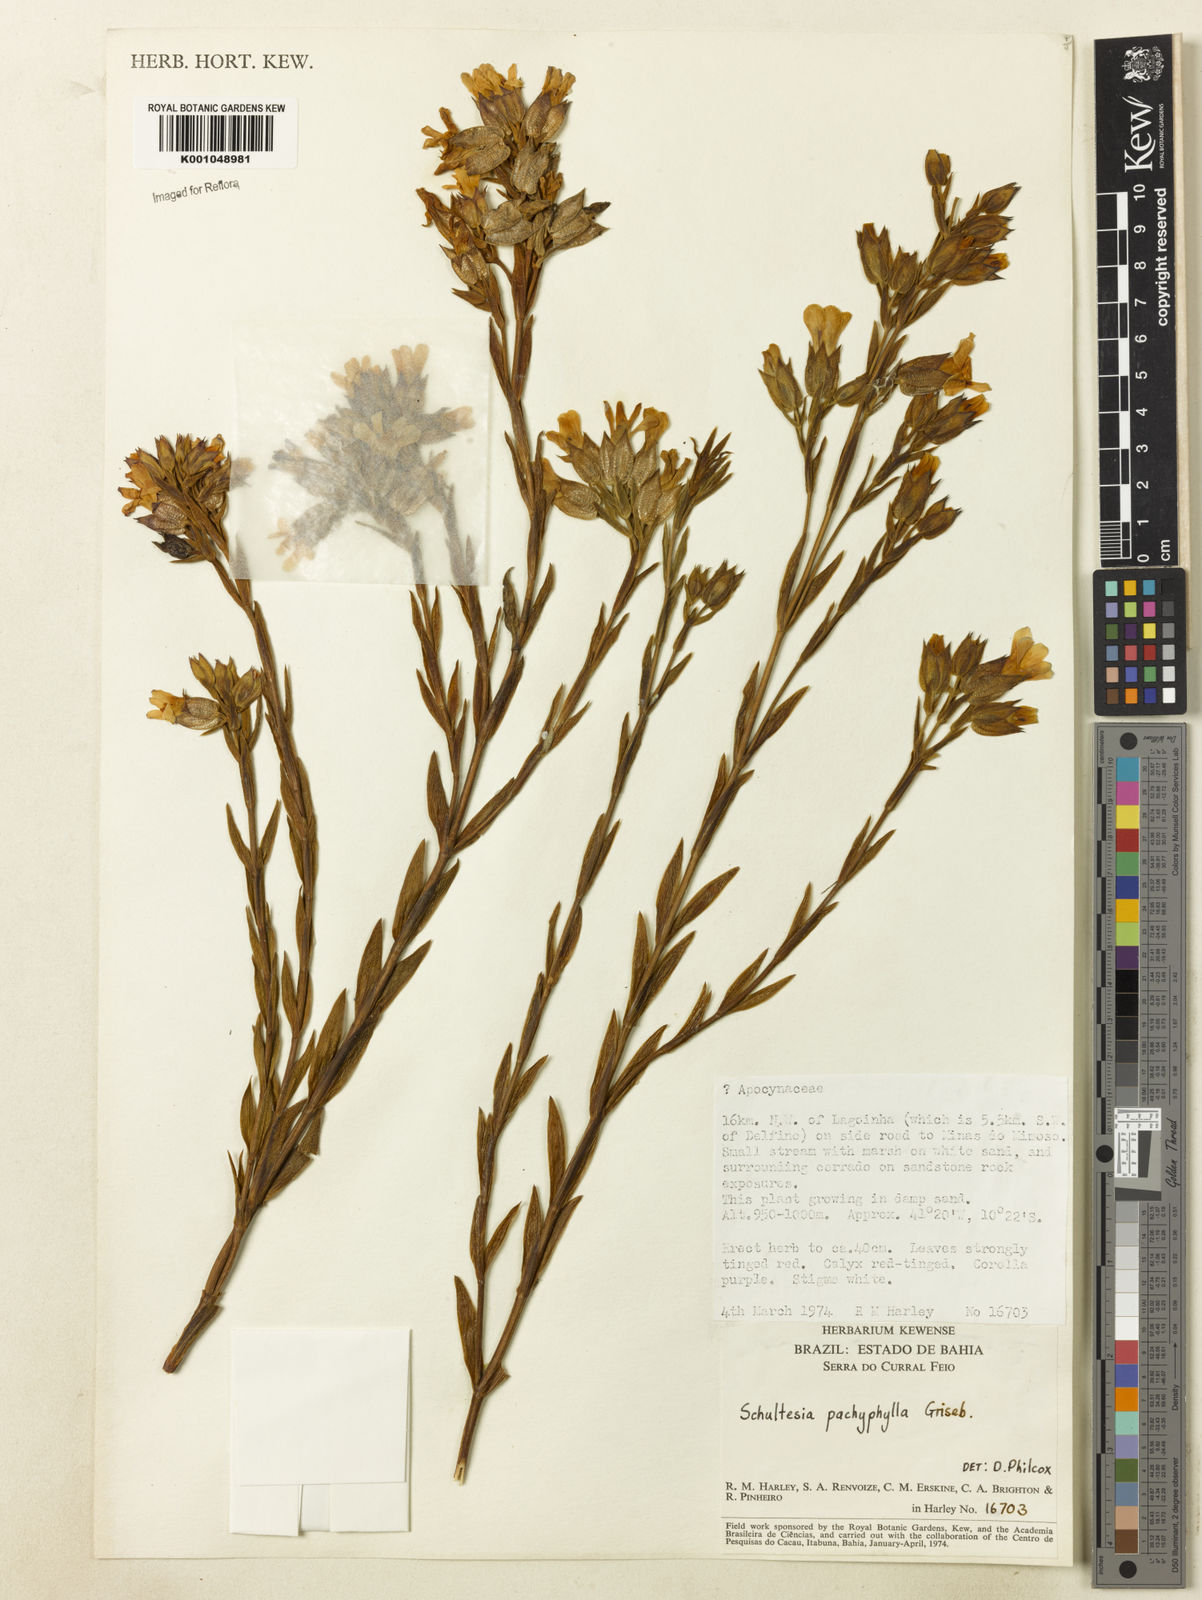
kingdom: Plantae
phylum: Tracheophyta
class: Magnoliopsida
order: Gentianales
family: Gentianaceae
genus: Schultesia
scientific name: Schultesia pachyphylla
